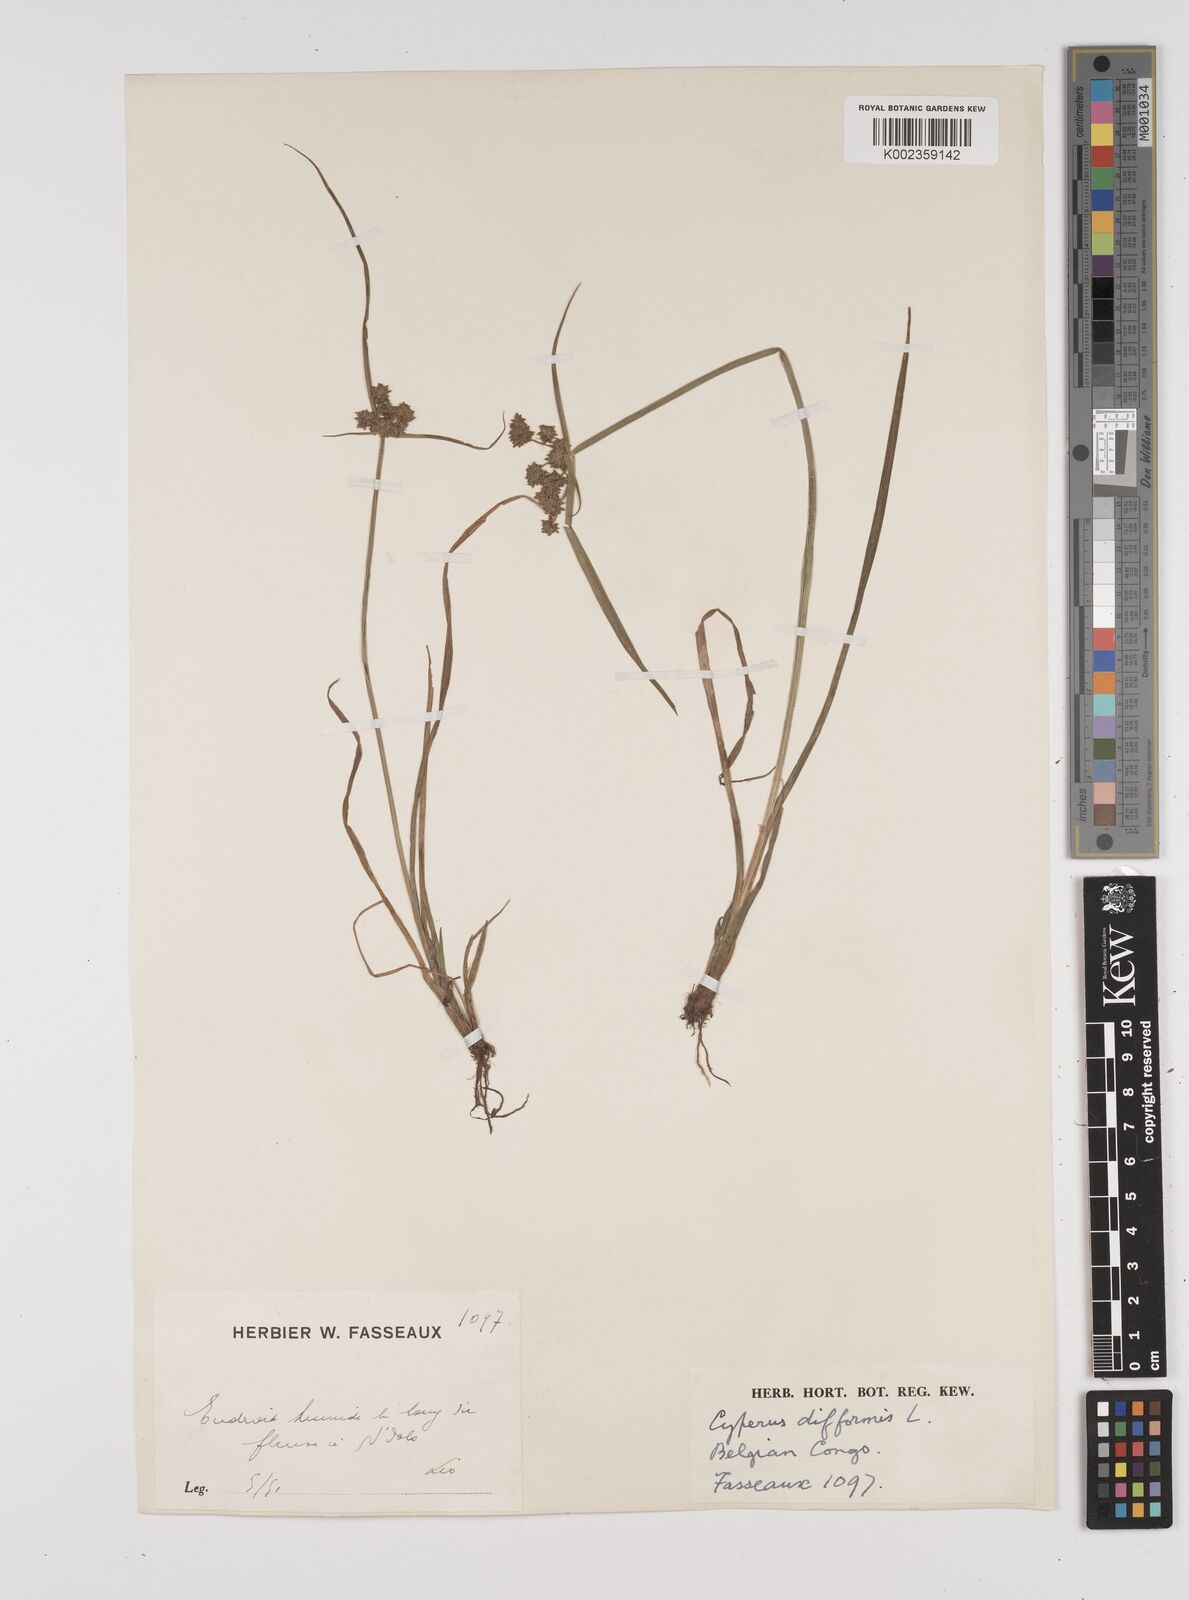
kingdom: Plantae
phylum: Tracheophyta
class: Liliopsida
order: Poales
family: Cyperaceae
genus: Cyperus
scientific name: Cyperus difformis
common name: Variable flatsedge
